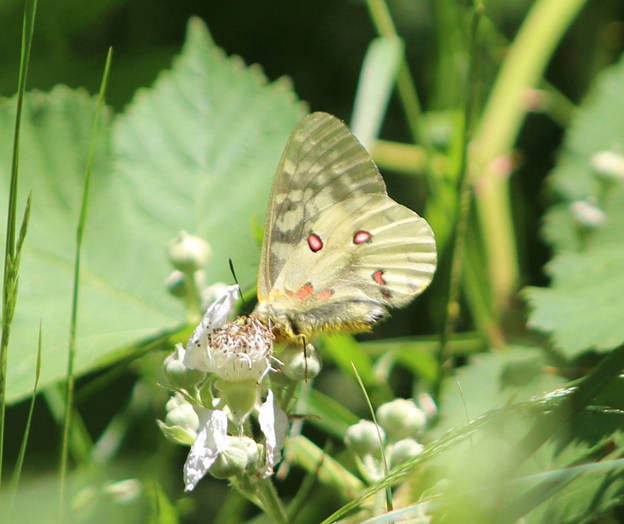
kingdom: Animalia
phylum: Arthropoda
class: Insecta
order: Lepidoptera
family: Papilionidae
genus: Parnassius
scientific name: Parnassius clodius
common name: Clodius Parnassian
